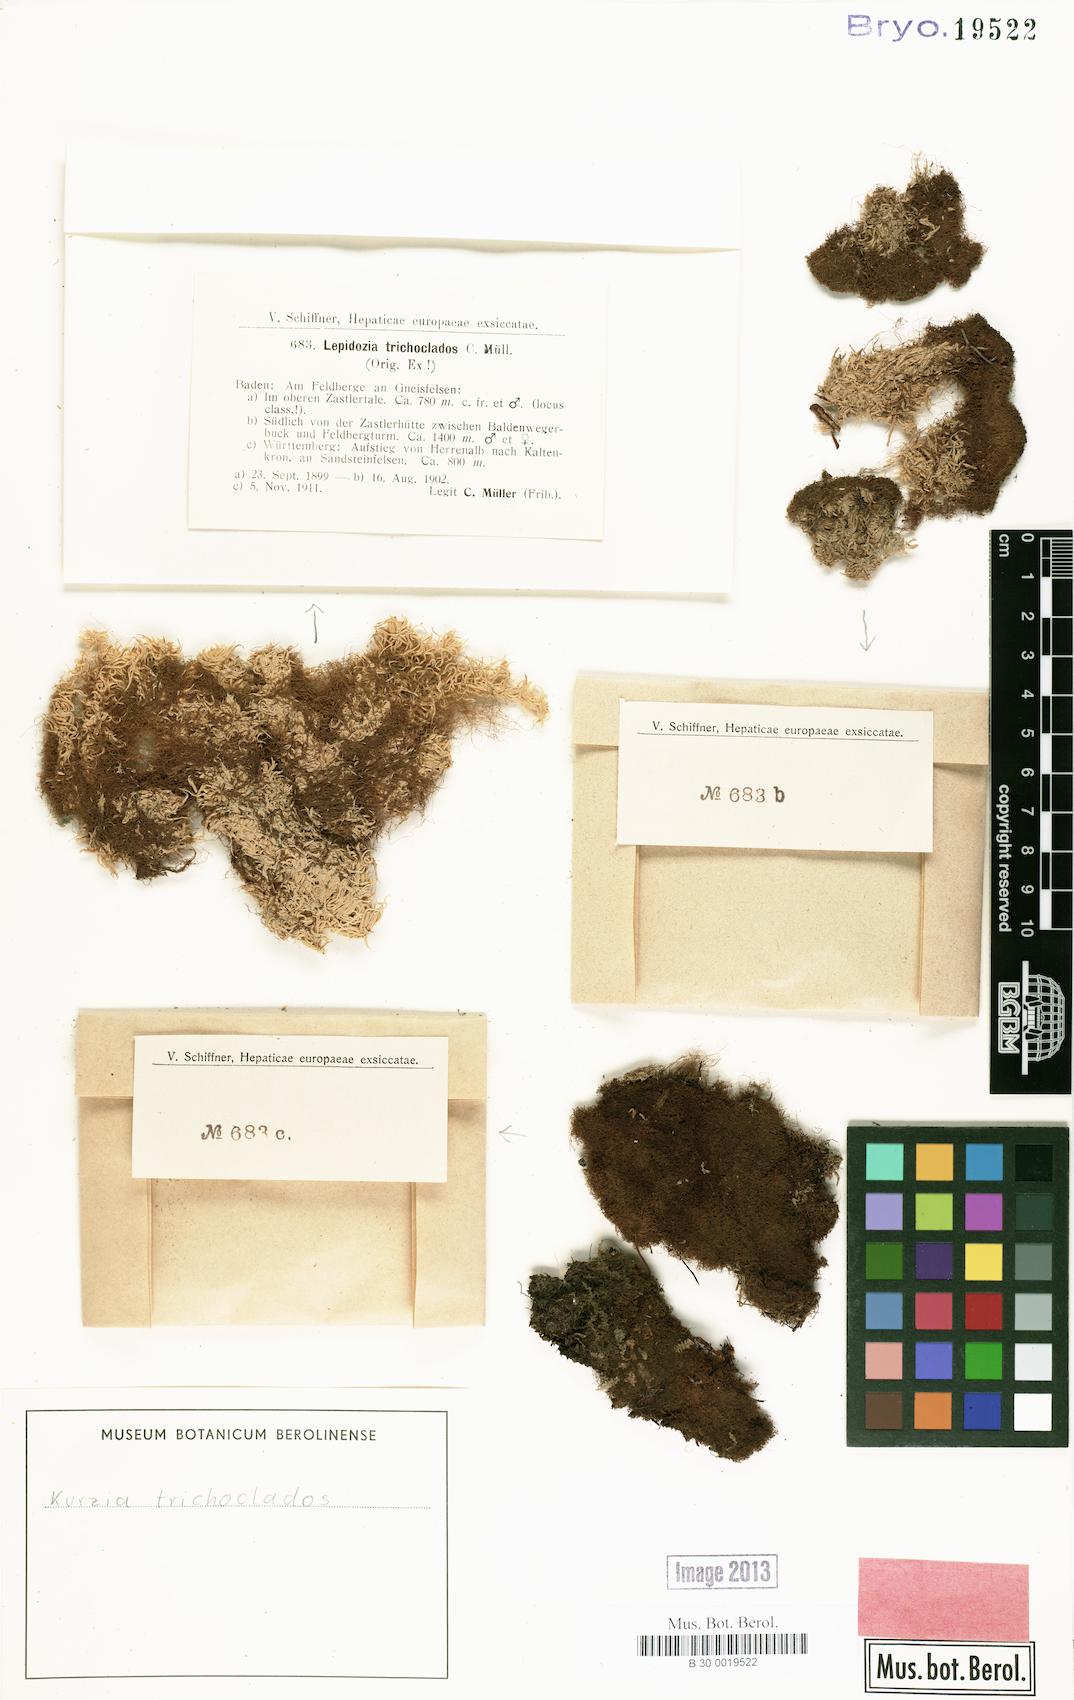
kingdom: Plantae
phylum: Marchantiophyta
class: Jungermanniopsida
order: Jungermanniales
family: Lepidoziaceae
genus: Kurzia
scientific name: Kurzia trichoclados
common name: Heath fingerwort
